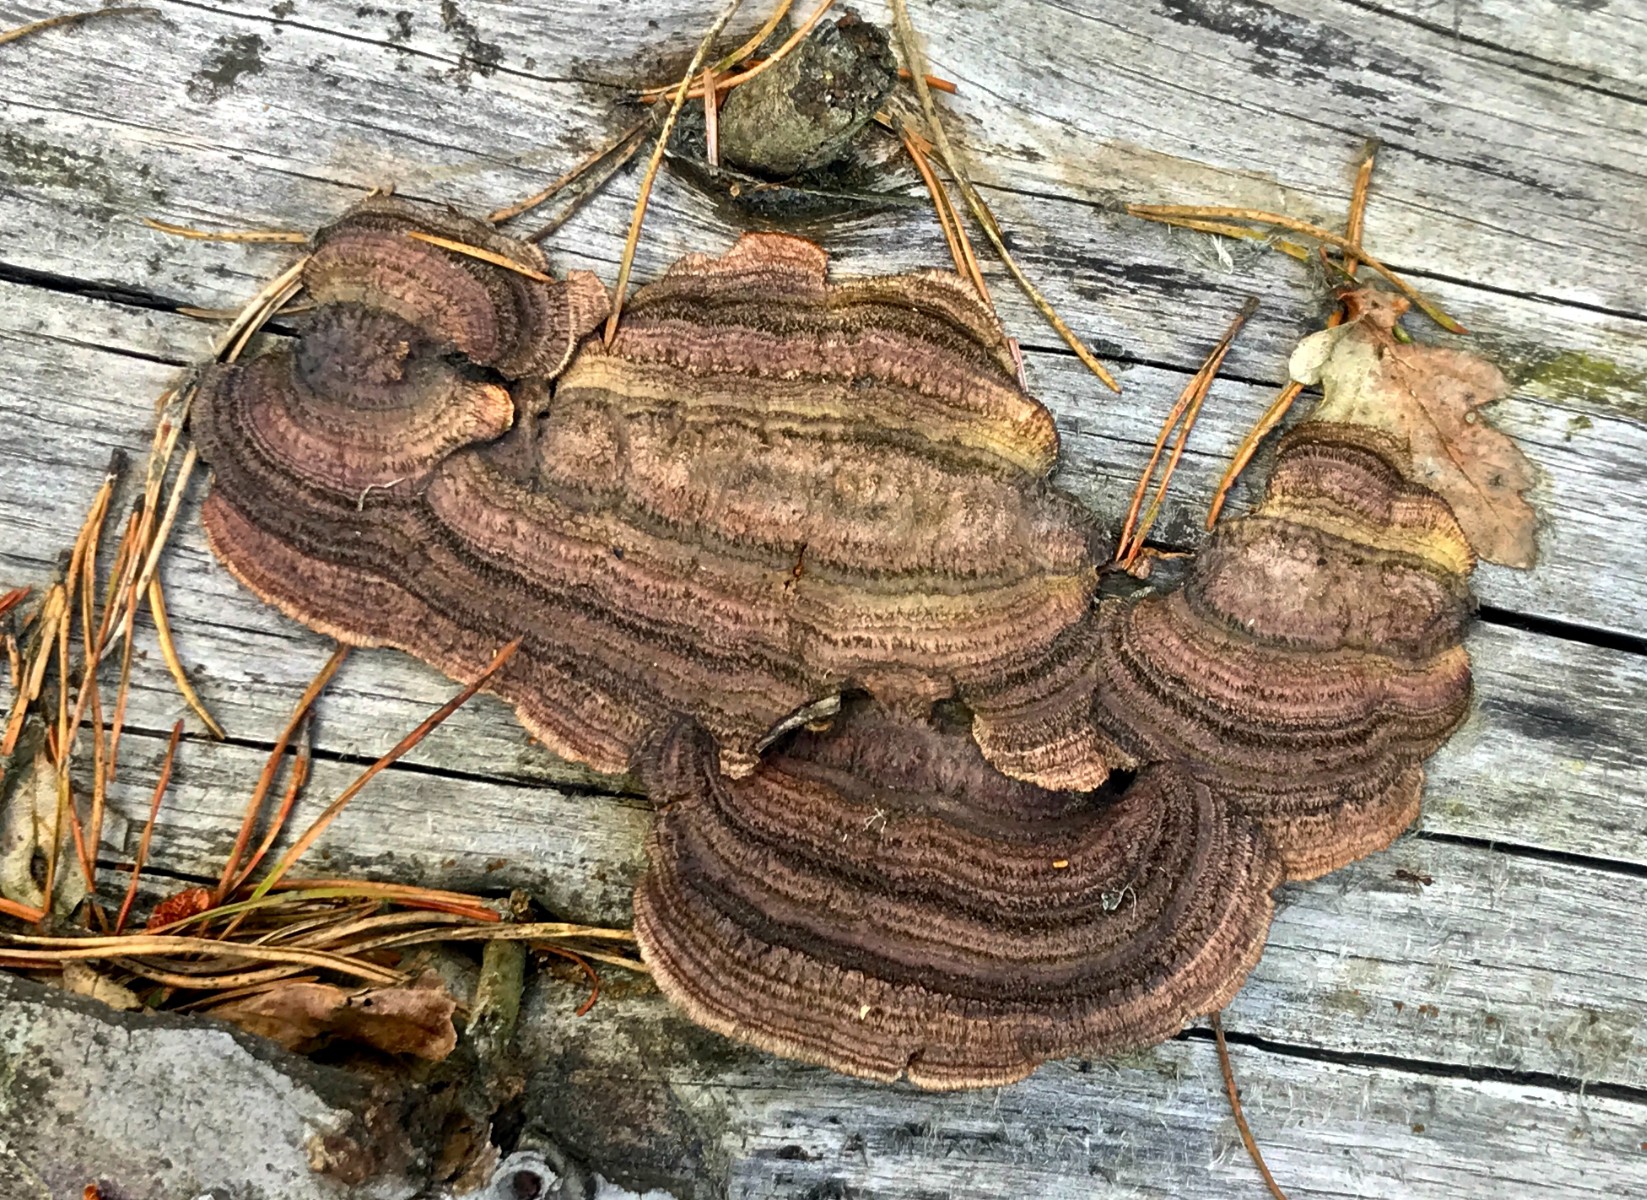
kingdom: Fungi
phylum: Basidiomycota
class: Agaricomycetes
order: Gloeophyllales
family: Gloeophyllaceae
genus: Gloeophyllum
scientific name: Gloeophyllum sepiarium
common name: fyrre-korkhat
